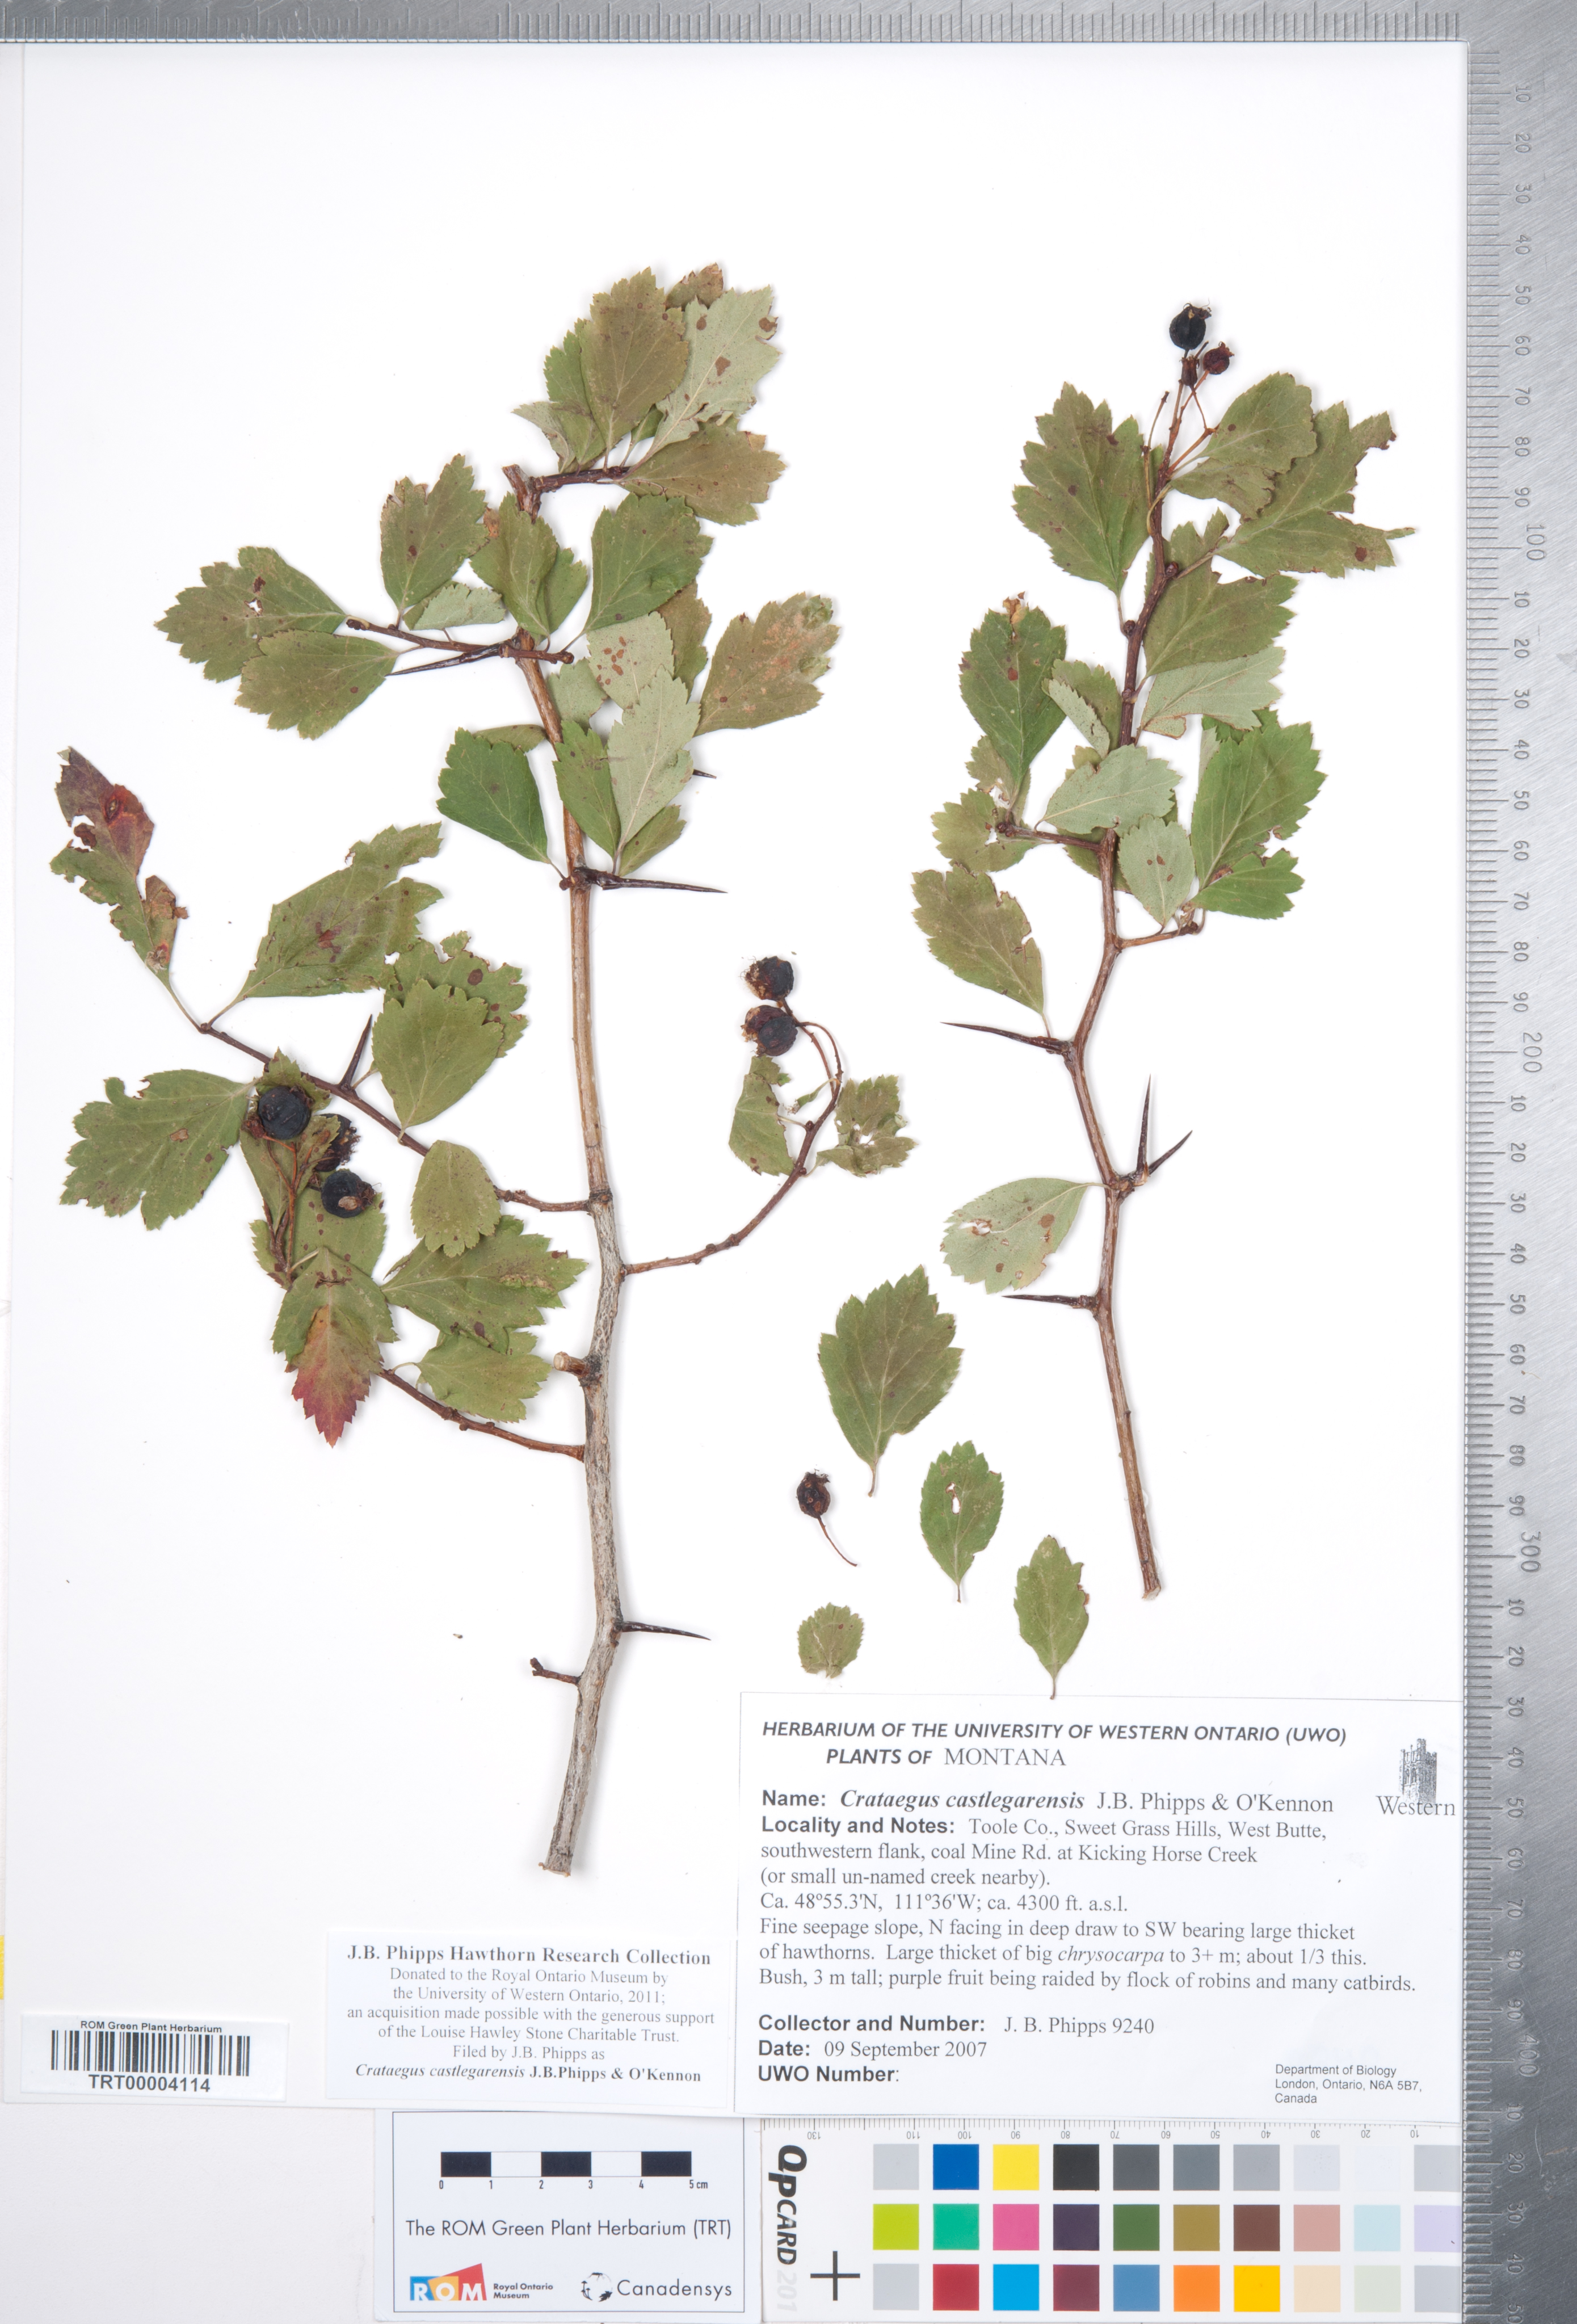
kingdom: Plantae
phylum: Tracheophyta
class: Magnoliopsida
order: Rosales
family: Rosaceae
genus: Crataegus
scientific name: Crataegus castlegarensis
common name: Castlegar hawthorn
